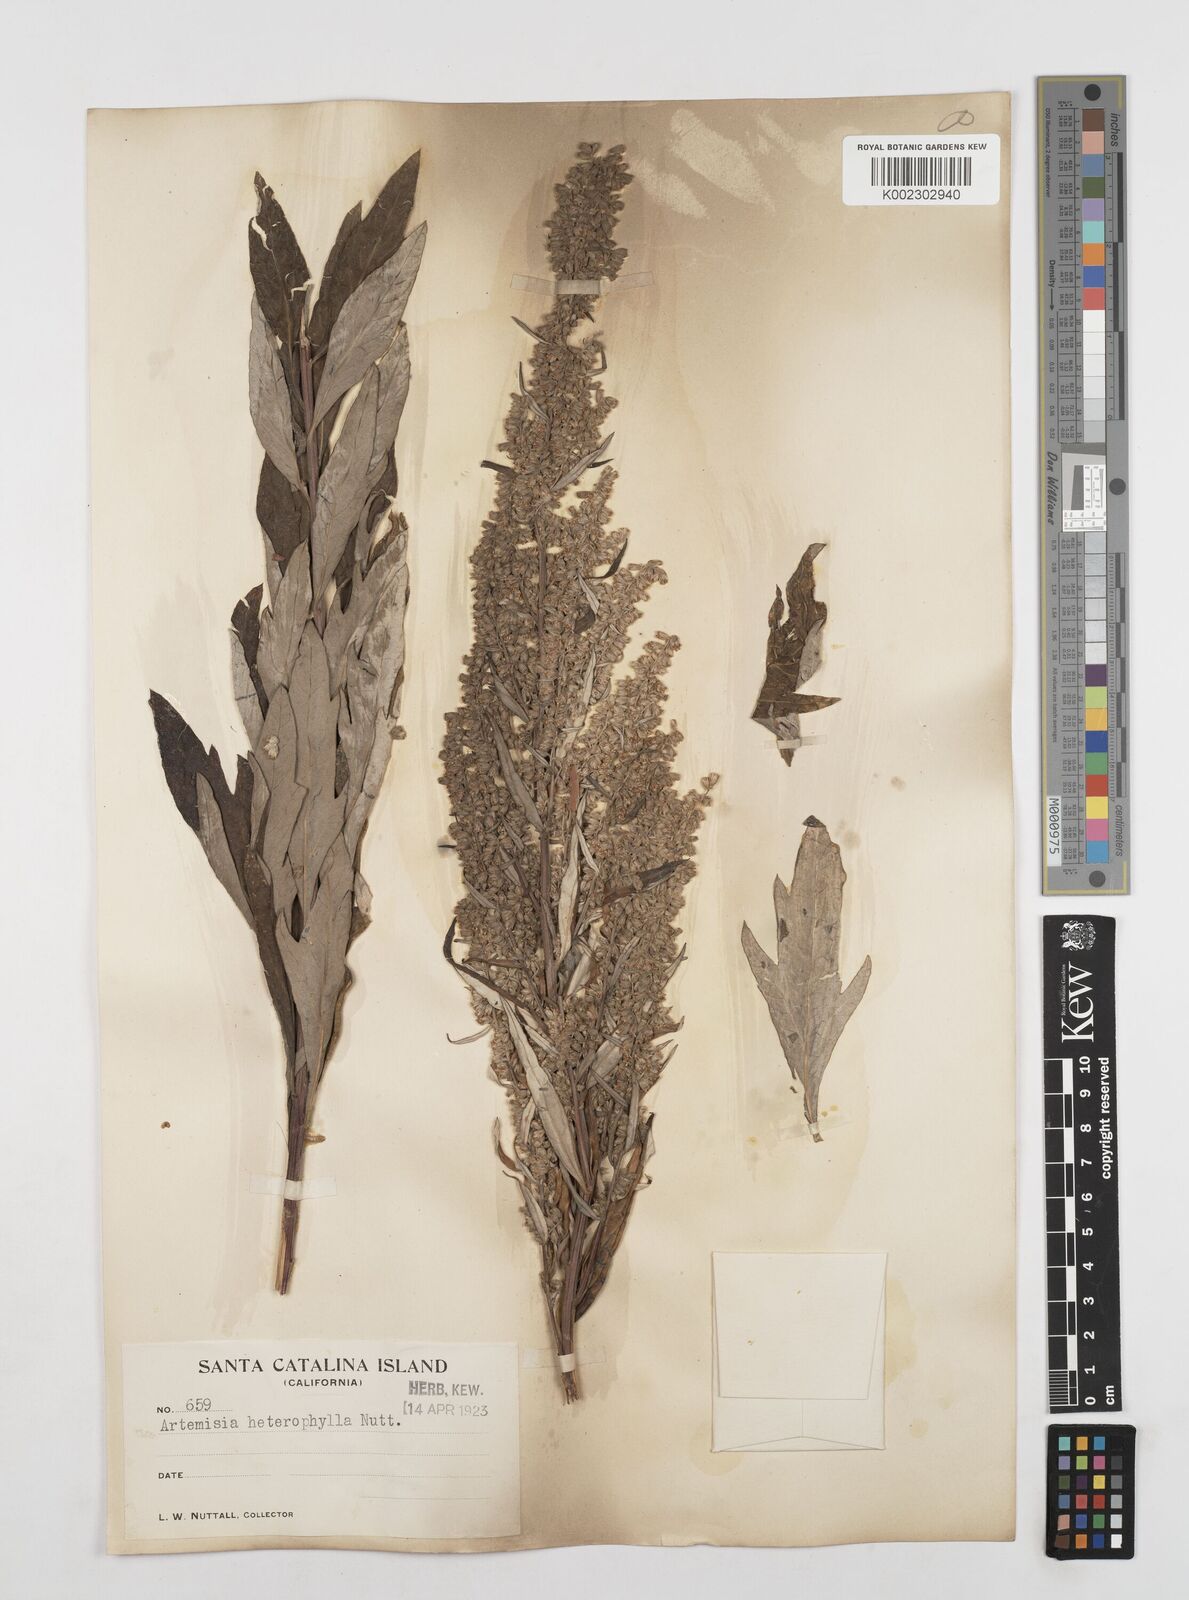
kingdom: Plantae
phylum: Tracheophyta
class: Magnoliopsida
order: Asterales
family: Asteraceae
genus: Artemisia
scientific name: Artemisia douglasiana
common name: Northwest mugwort
